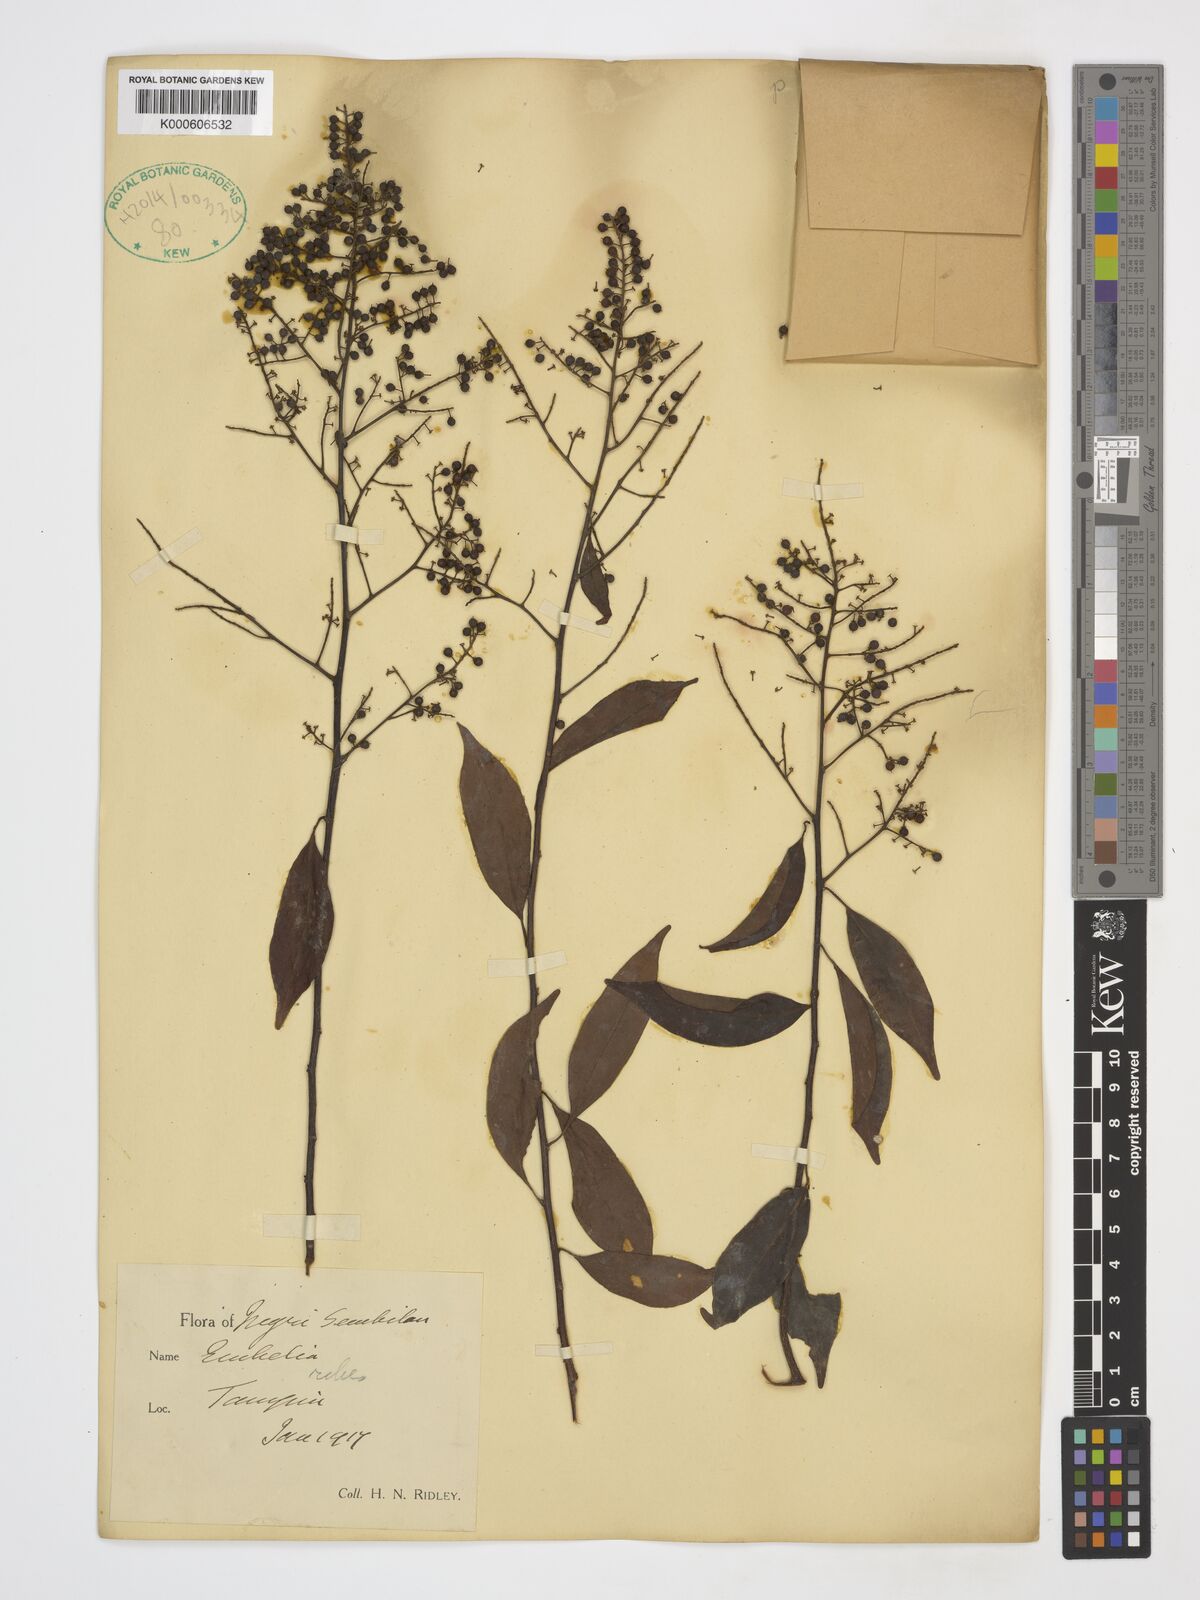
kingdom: Plantae
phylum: Tracheophyta
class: Magnoliopsida
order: Ericales
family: Primulaceae
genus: Embelia
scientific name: Embelia
